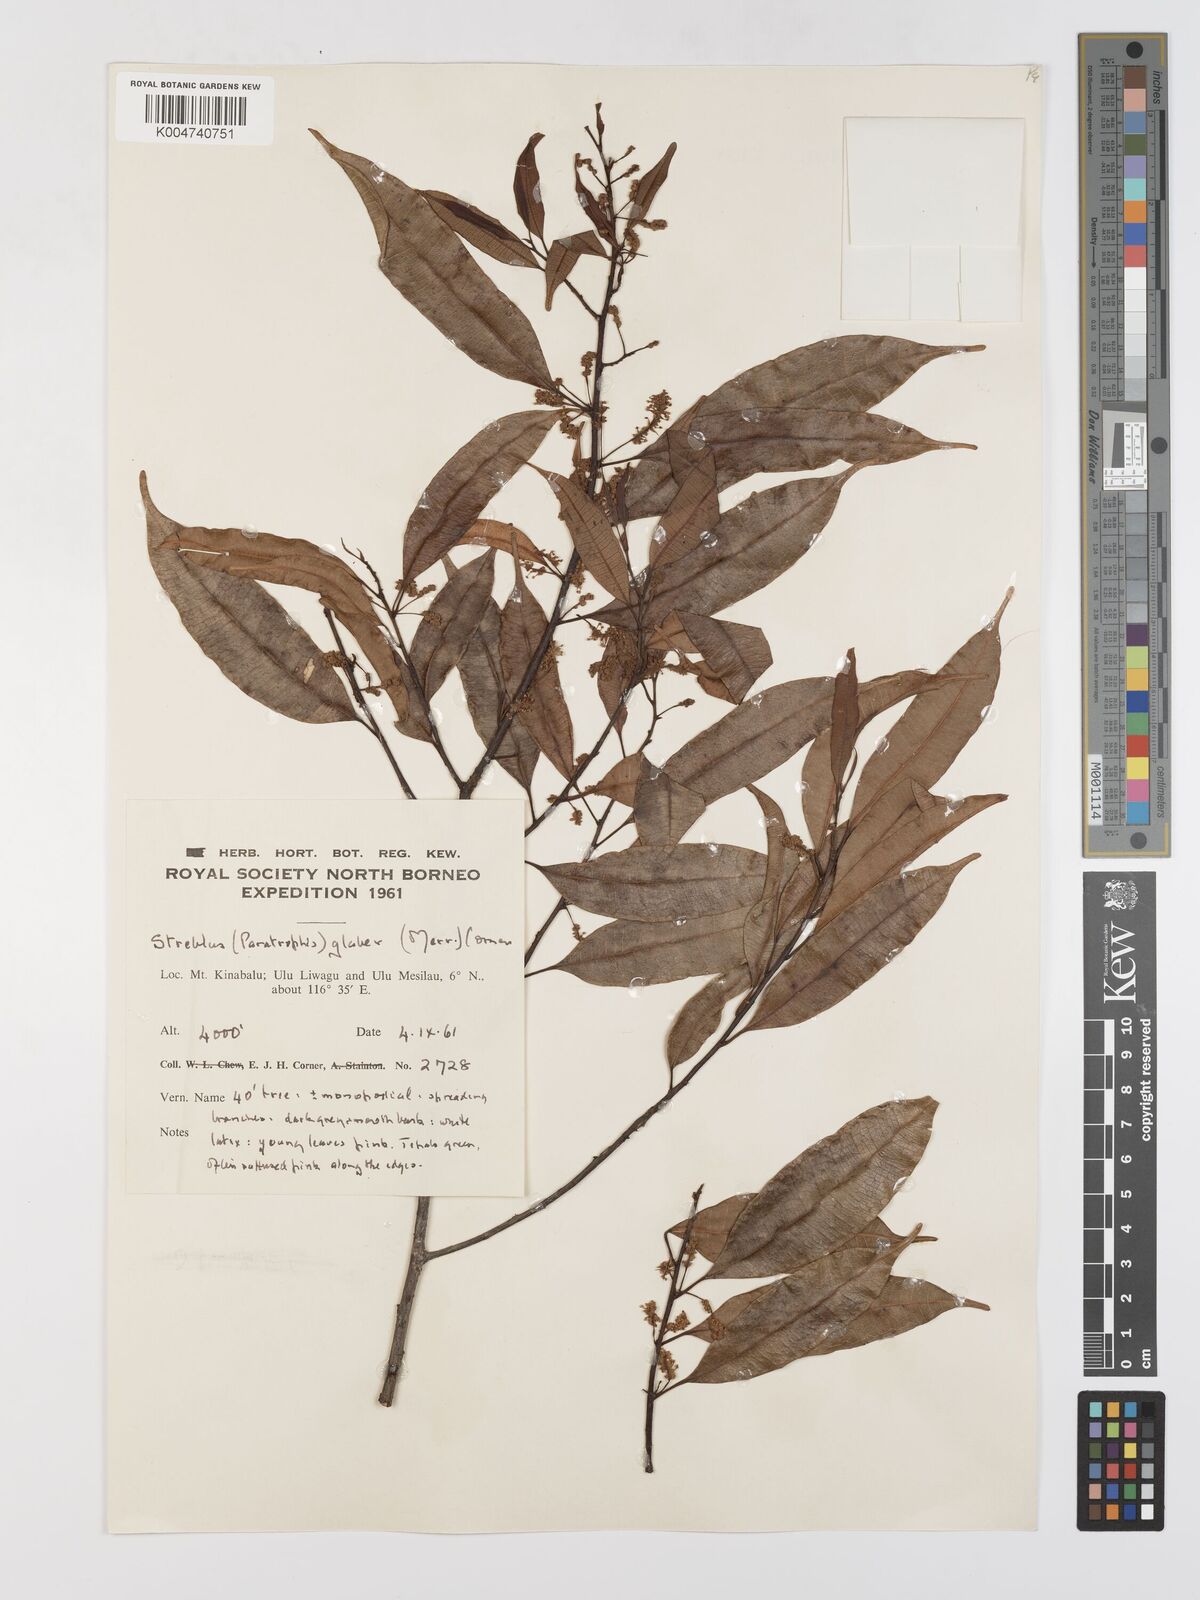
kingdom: Plantae
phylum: Tracheophyta
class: Magnoliopsida
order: Rosales
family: Moraceae
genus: Paratrophis
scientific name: Paratrophis glabra
